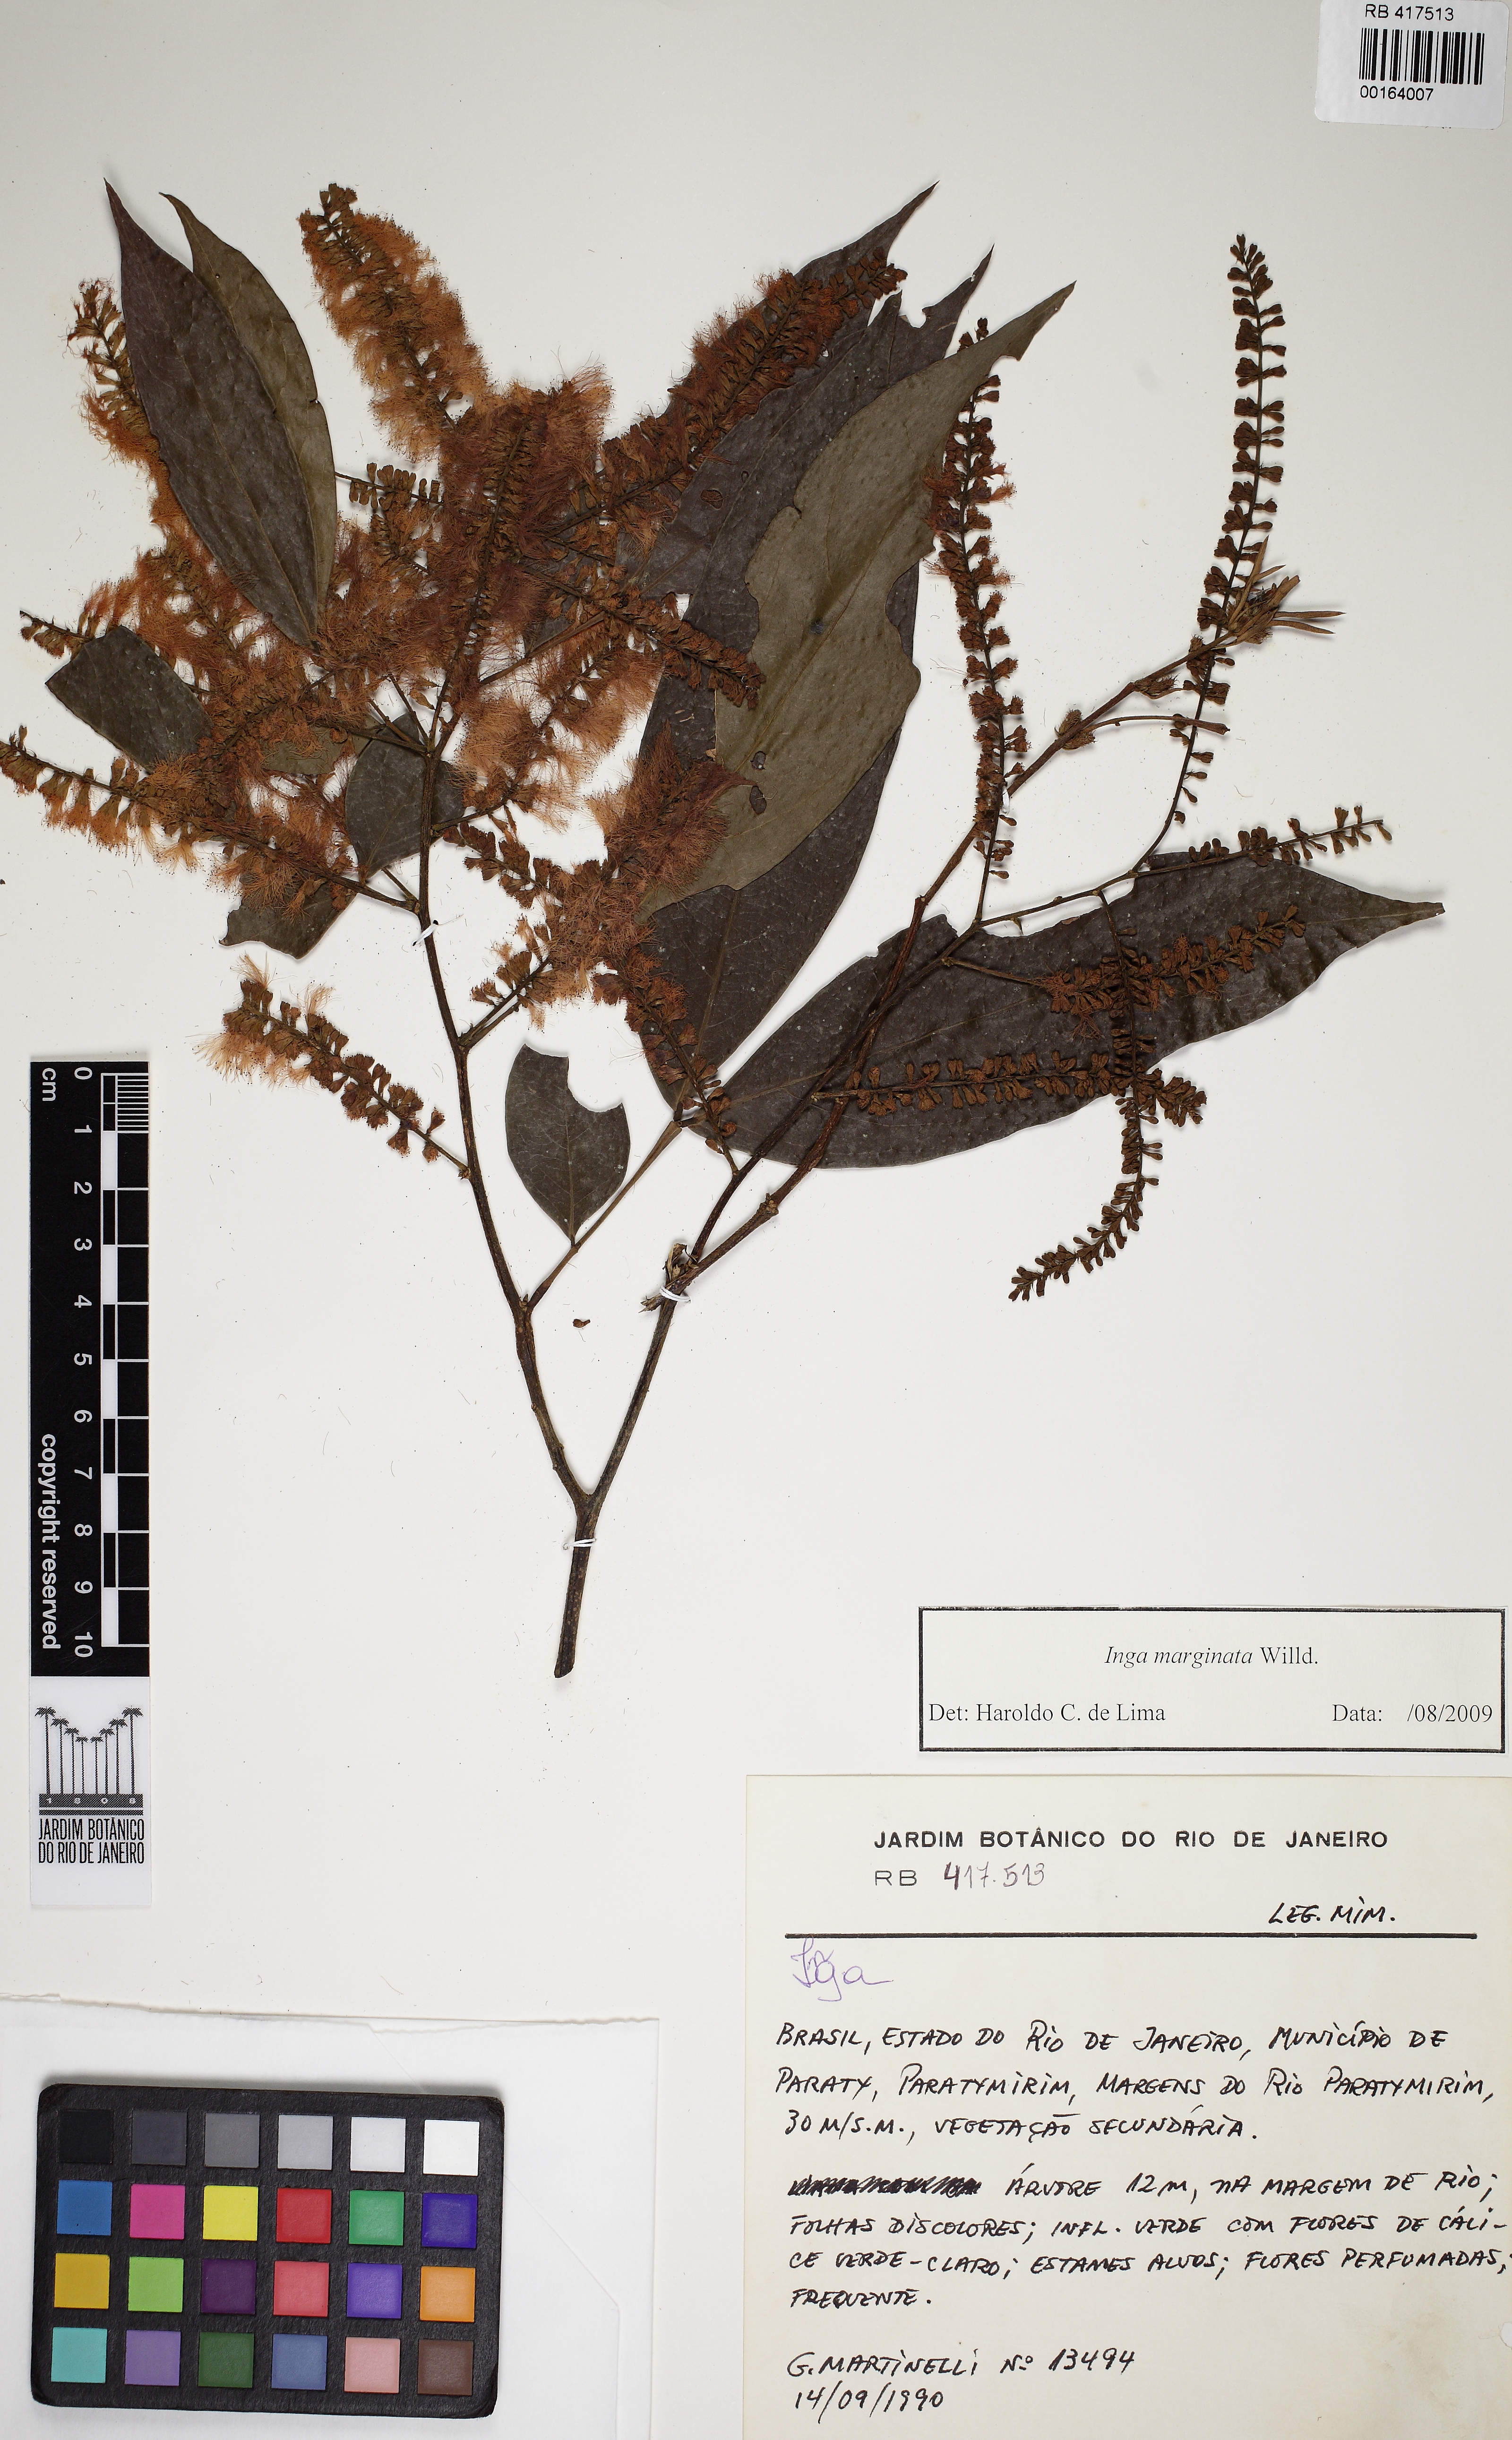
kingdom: Plantae
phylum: Tracheophyta
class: Magnoliopsida
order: Fabales
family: Fabaceae
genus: Inga
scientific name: Inga marginata
